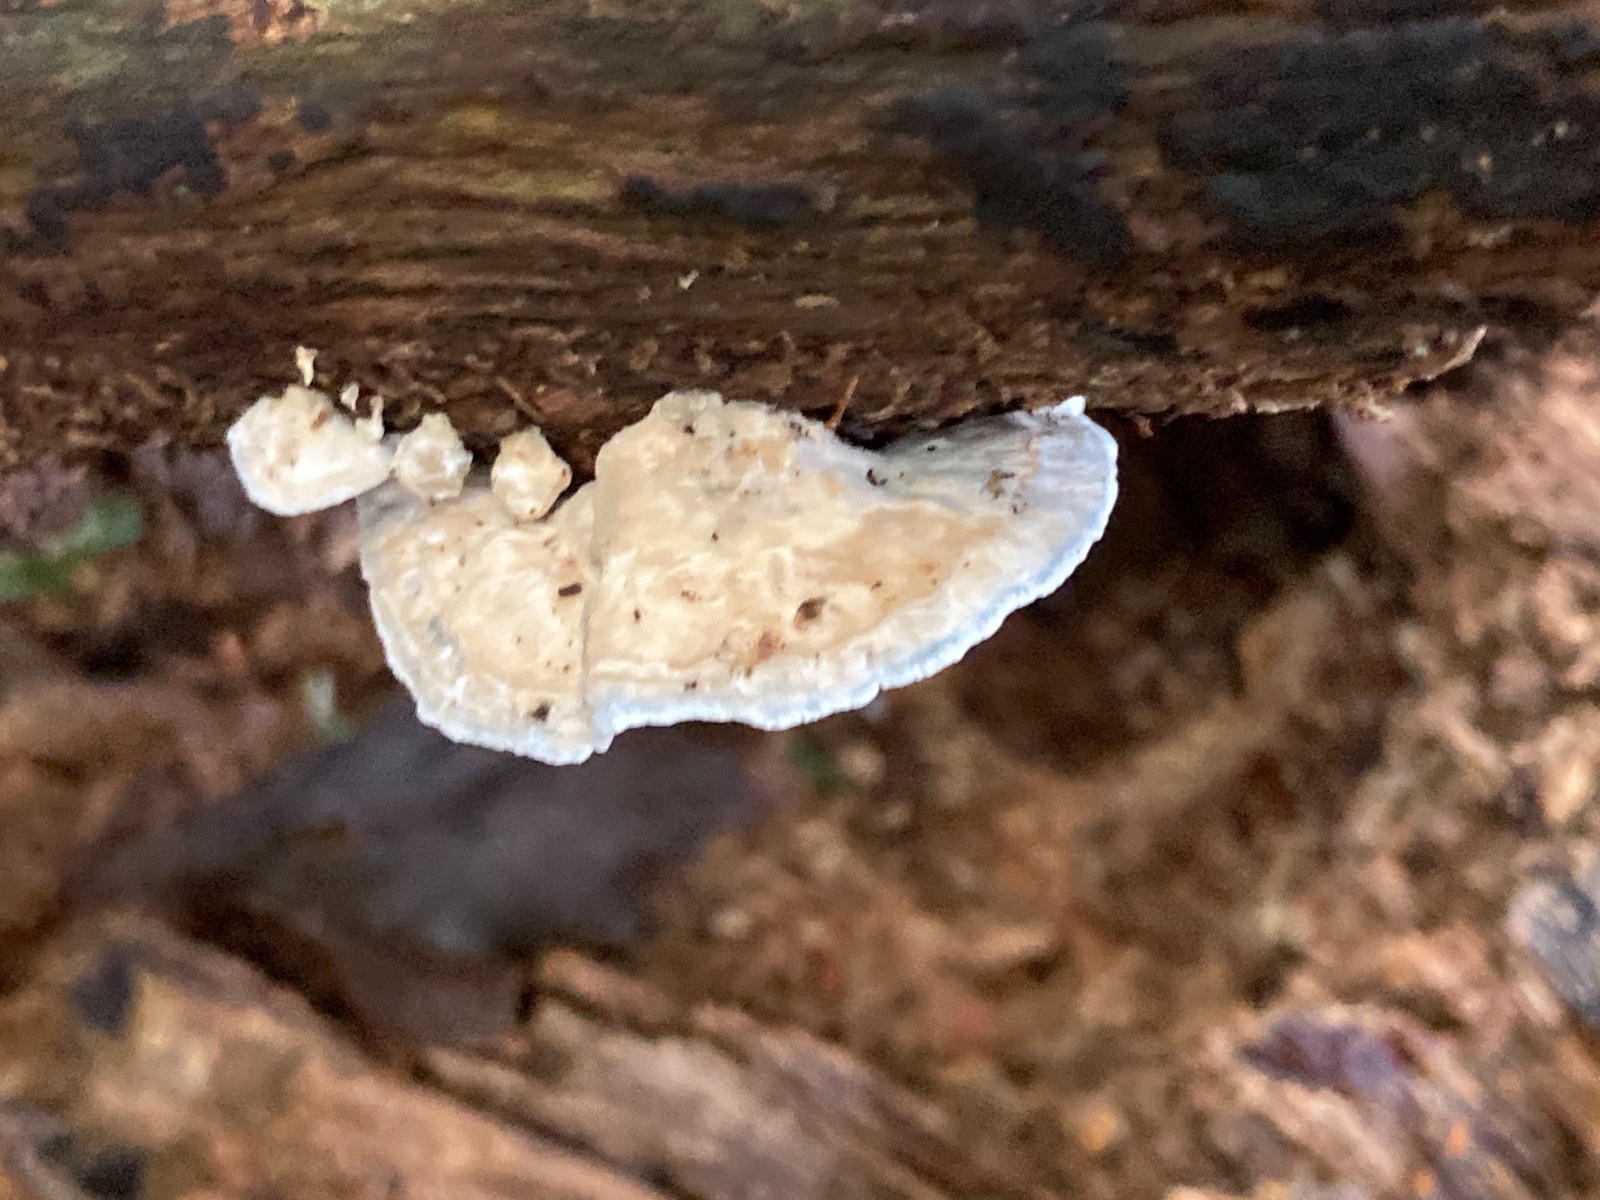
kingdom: Fungi
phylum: Basidiomycota
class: Agaricomycetes
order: Polyporales
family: Polyporaceae
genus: Cyanosporus
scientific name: Cyanosporus alni
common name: blegblå kødporesvamp
